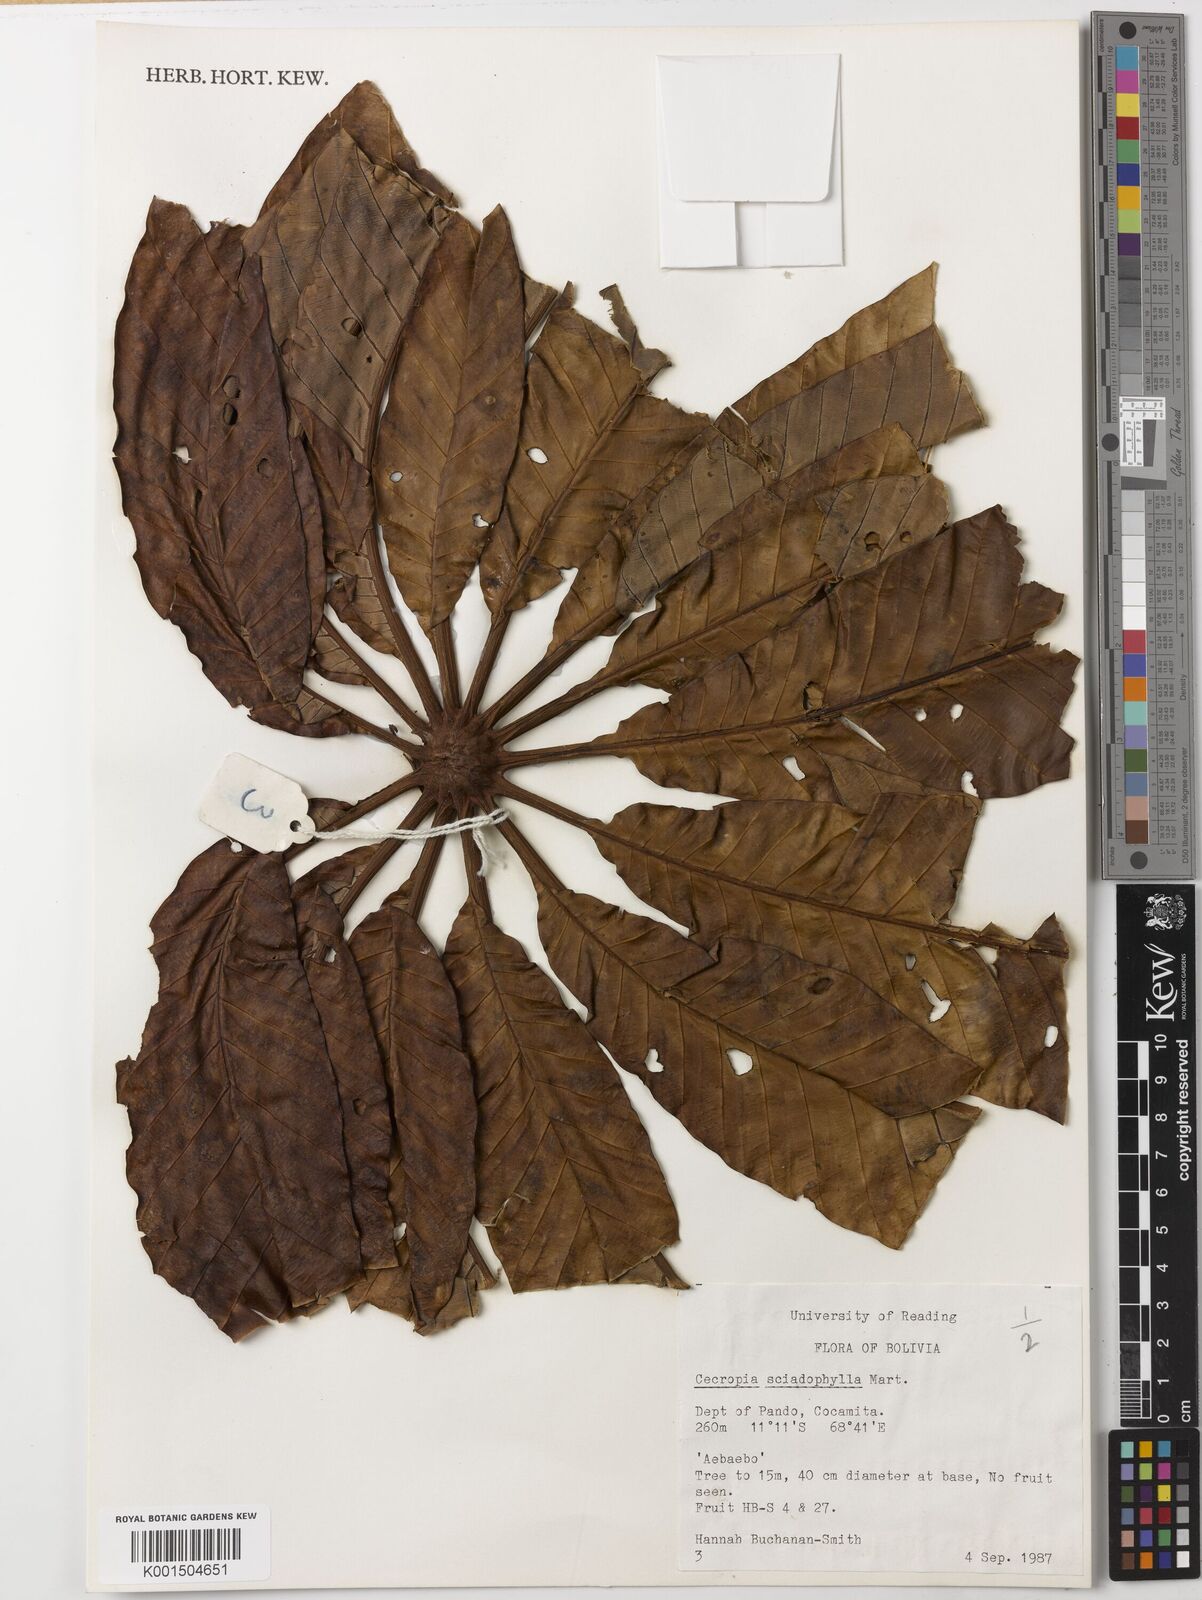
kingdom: Plantae
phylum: Tracheophyta
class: Magnoliopsida
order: Rosales
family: Urticaceae
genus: Cecropia
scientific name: Cecropia sciadophylla
